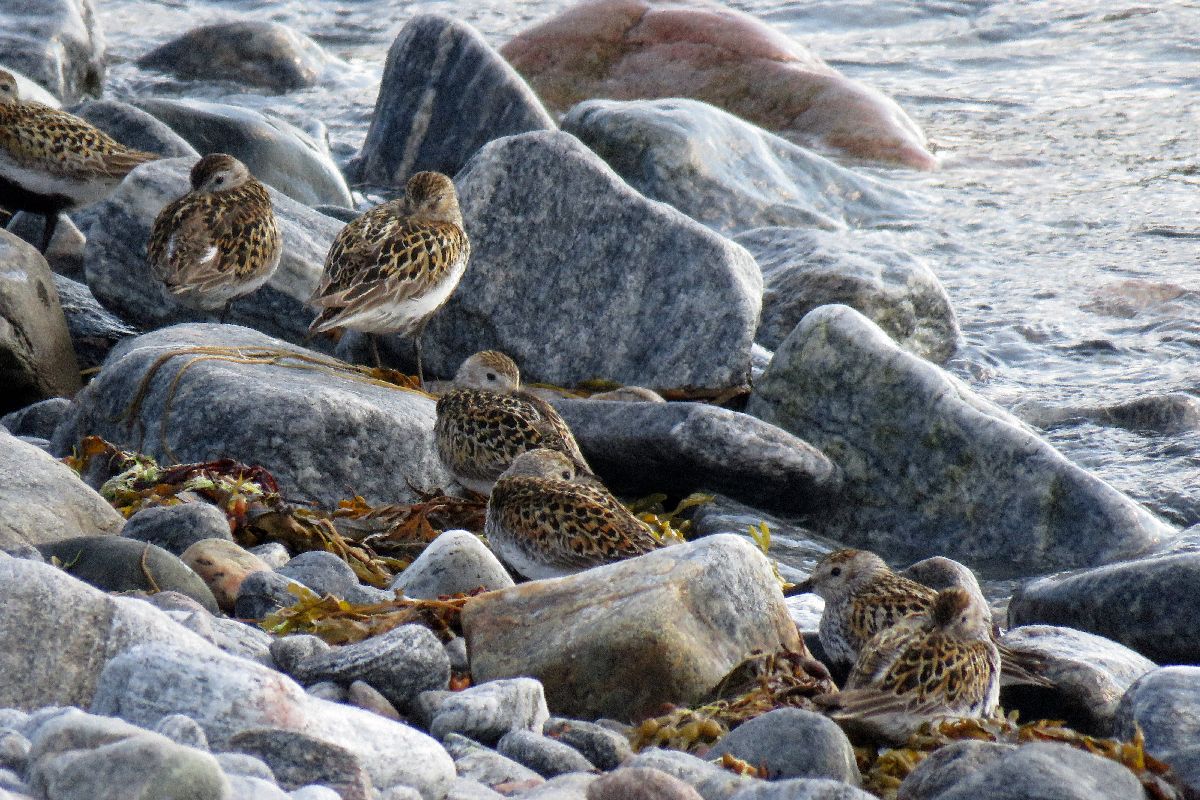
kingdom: Animalia
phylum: Chordata
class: Aves
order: Charadriiformes
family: Scolopacidae
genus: Calidris
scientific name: Calidris alpina
